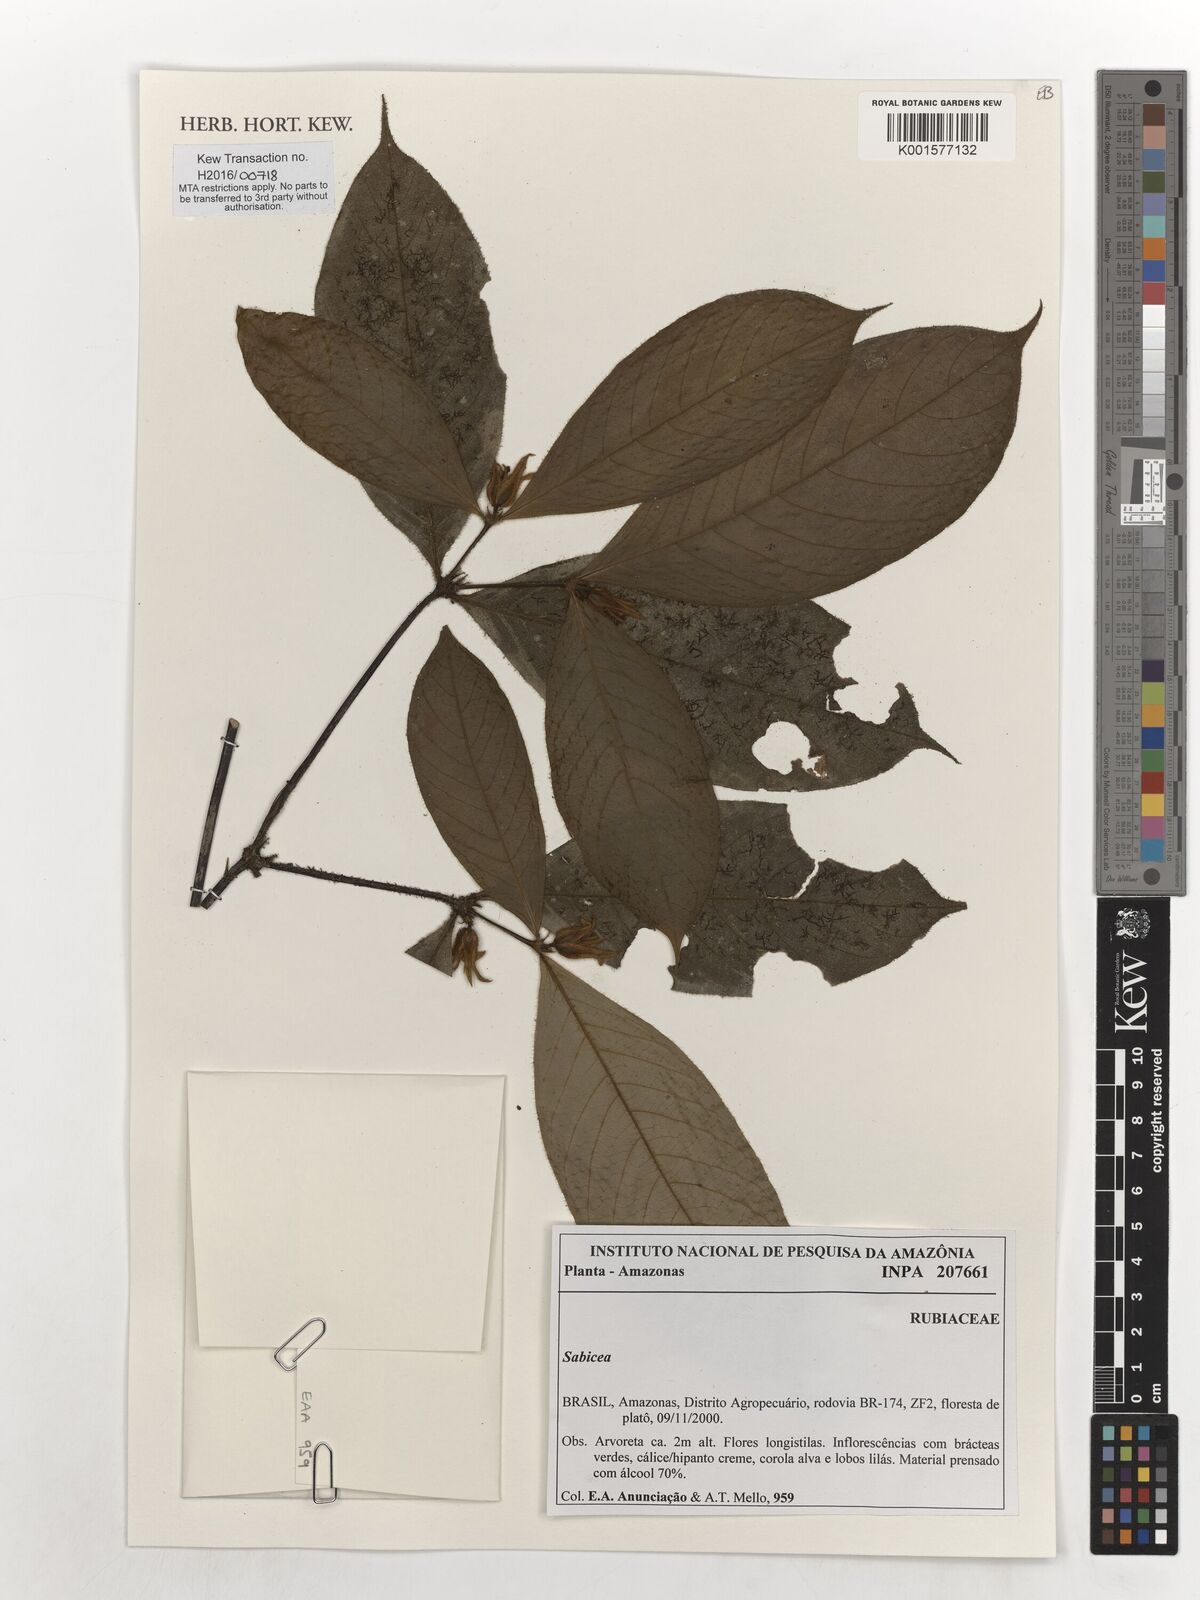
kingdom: Plantae
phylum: Tracheophyta
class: Magnoliopsida
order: Gentianales
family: Rubiaceae
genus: Sabicea
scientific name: Sabicea
